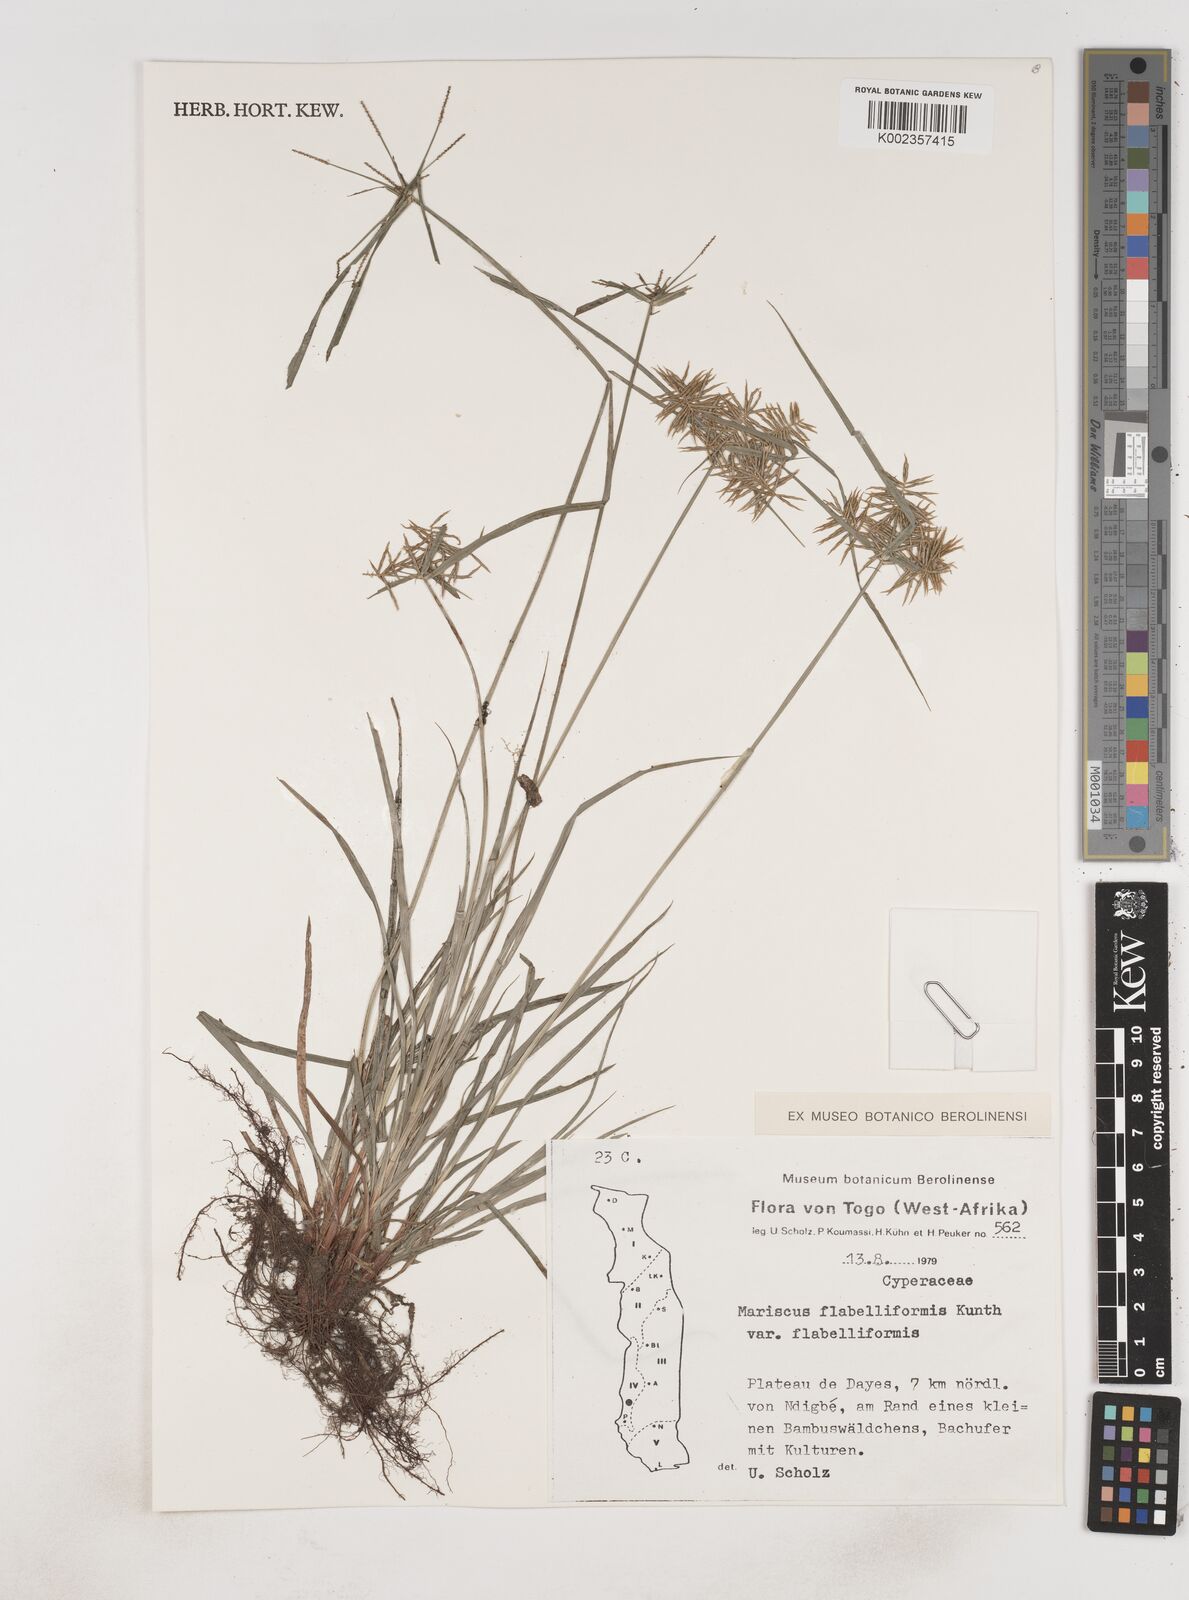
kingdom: Plantae
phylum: Tracheophyta
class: Liliopsida
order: Poales
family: Cyperaceae
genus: Cyperus
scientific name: Cyperus tenuis
